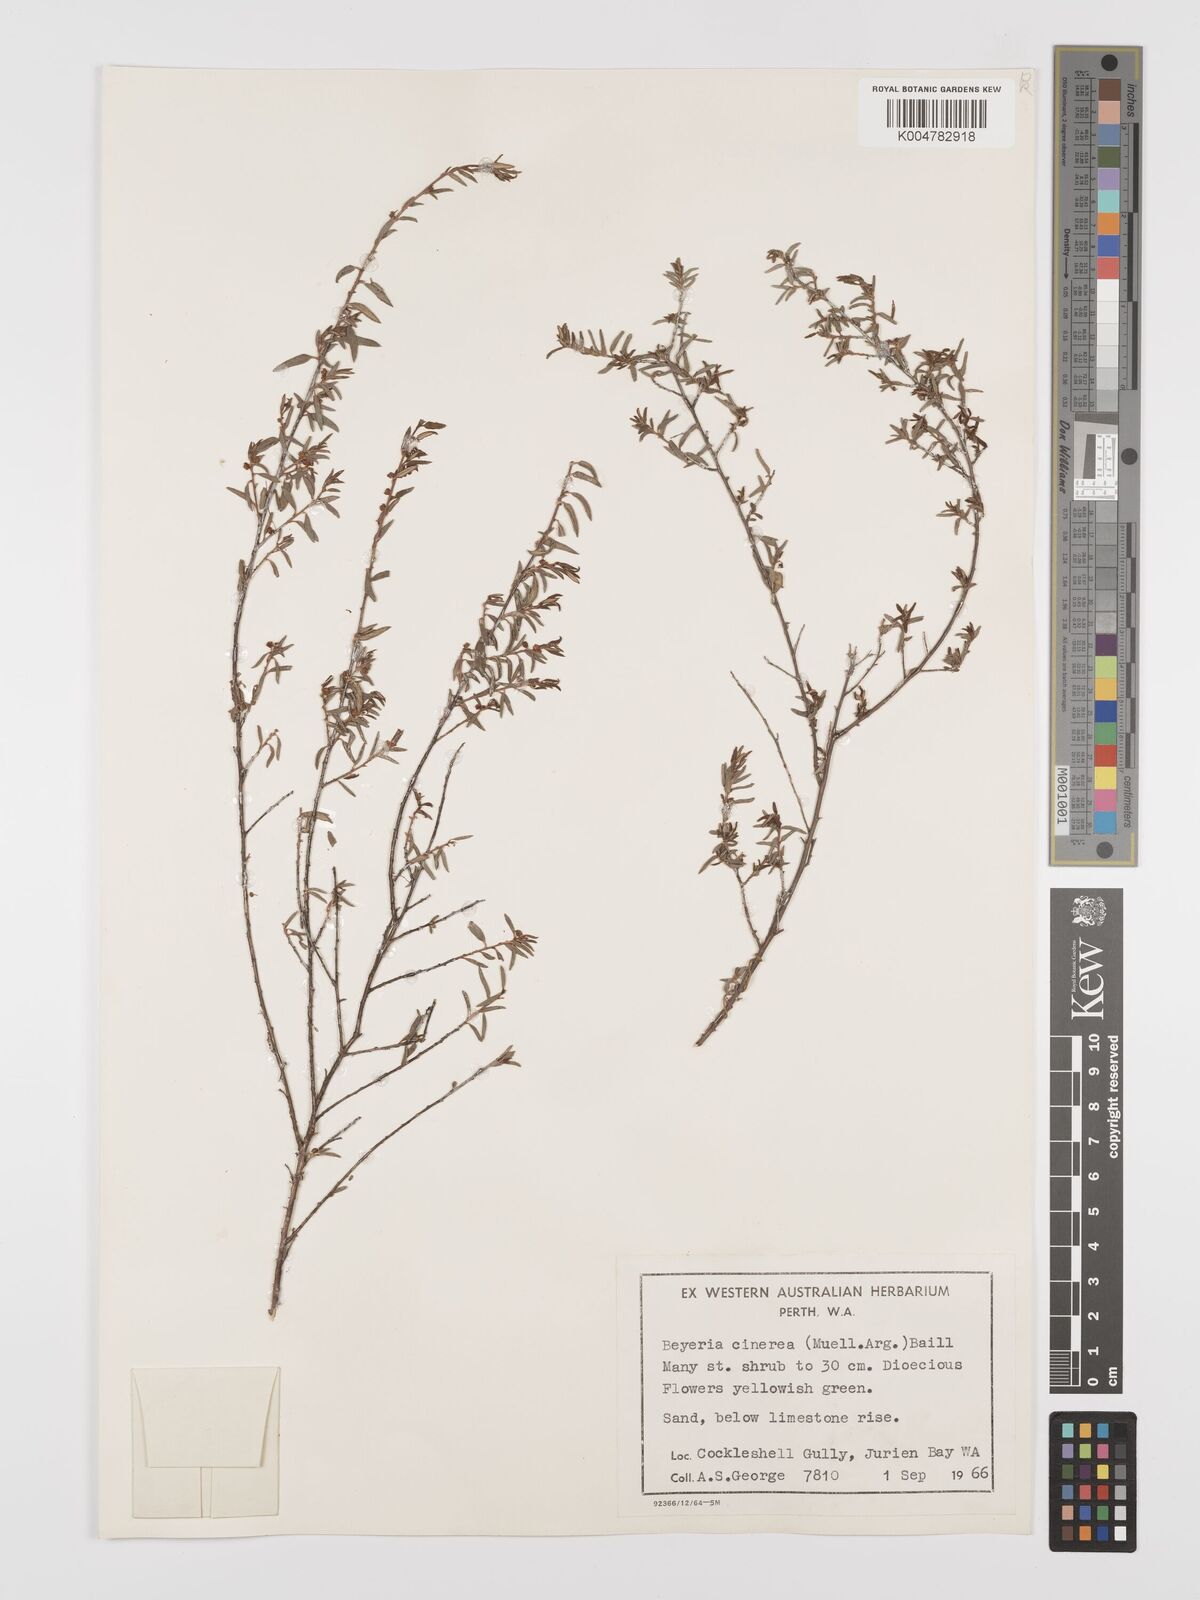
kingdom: Plantae
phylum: Tracheophyta
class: Magnoliopsida
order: Malpighiales
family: Euphorbiaceae
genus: Beyeria
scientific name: Beyeria cinerea
